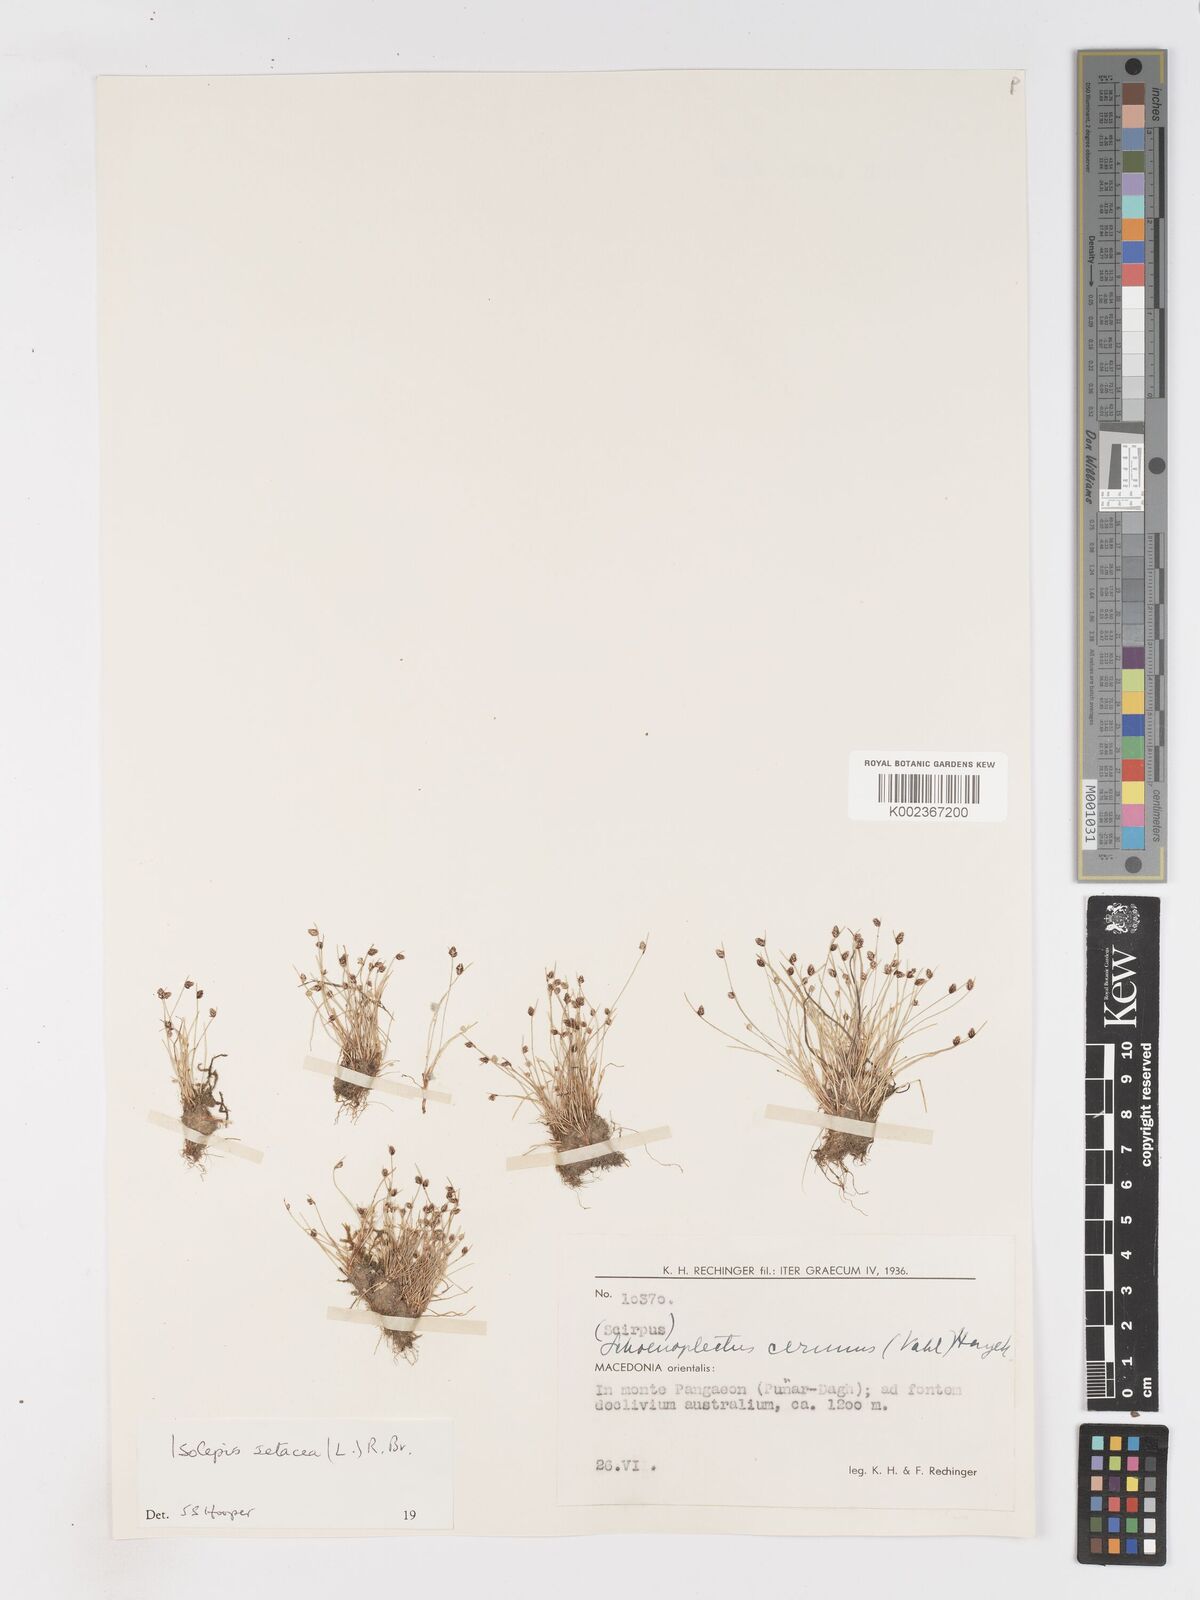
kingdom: Plantae
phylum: Tracheophyta
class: Liliopsida
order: Poales
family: Cyperaceae
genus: Isolepis
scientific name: Isolepis setacea
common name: Bristle club-rush
